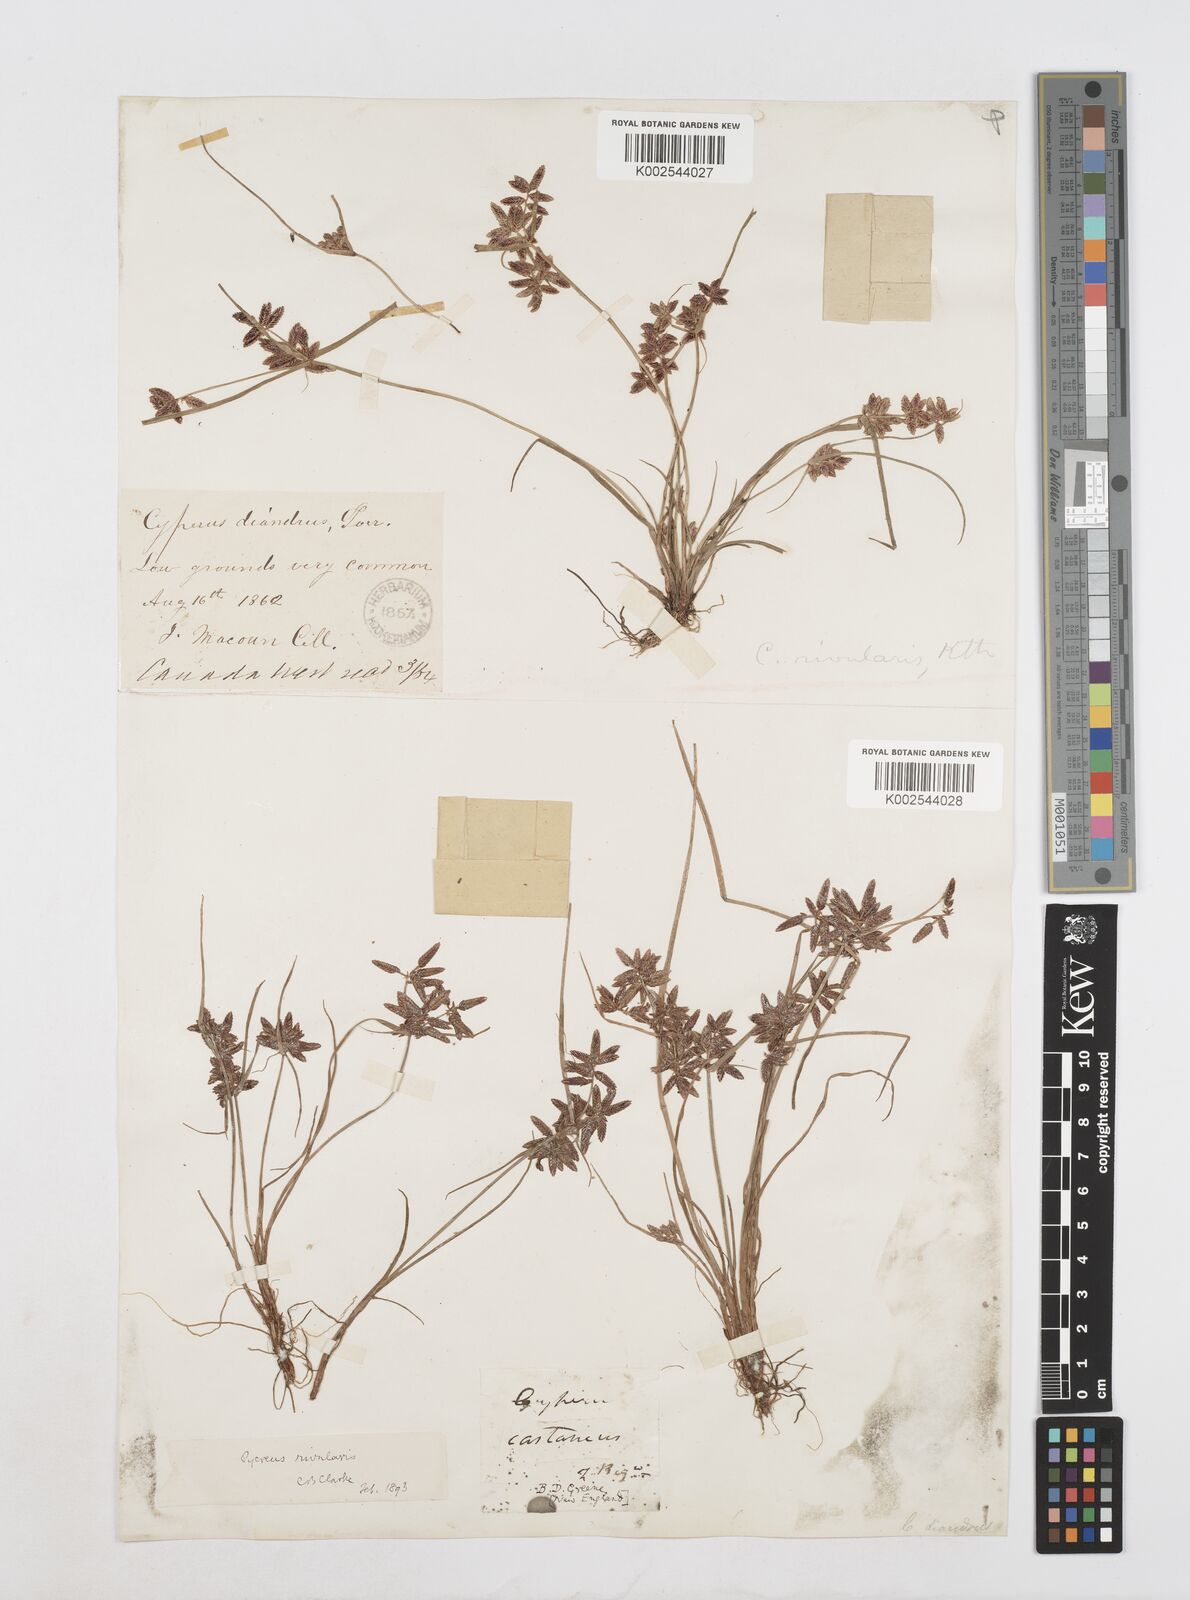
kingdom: Plantae
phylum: Tracheophyta
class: Liliopsida
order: Poales
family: Cyperaceae
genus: Cyperus
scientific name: Cyperus bipartitus
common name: Brook flatsedge
